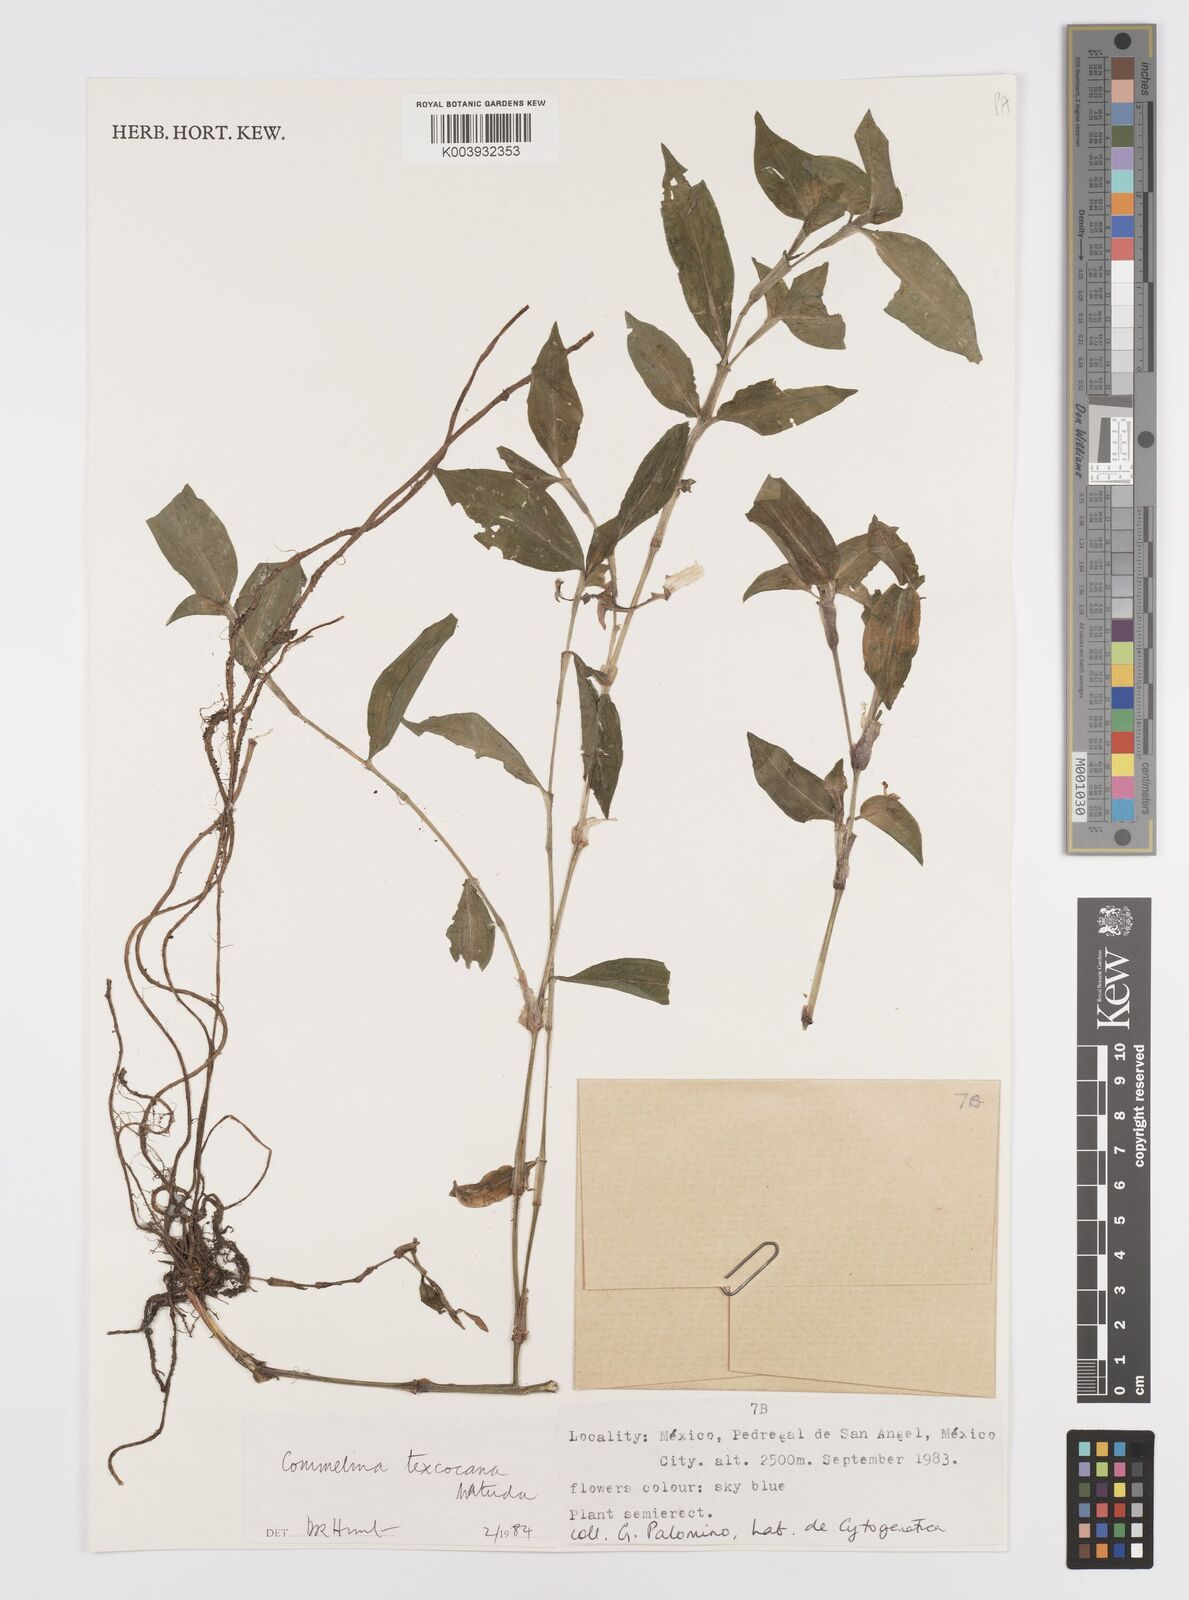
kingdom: Plantae
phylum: Tracheophyta
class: Liliopsida
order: Commelinales
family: Commelinaceae
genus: Commelina
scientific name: Commelina texcocana
